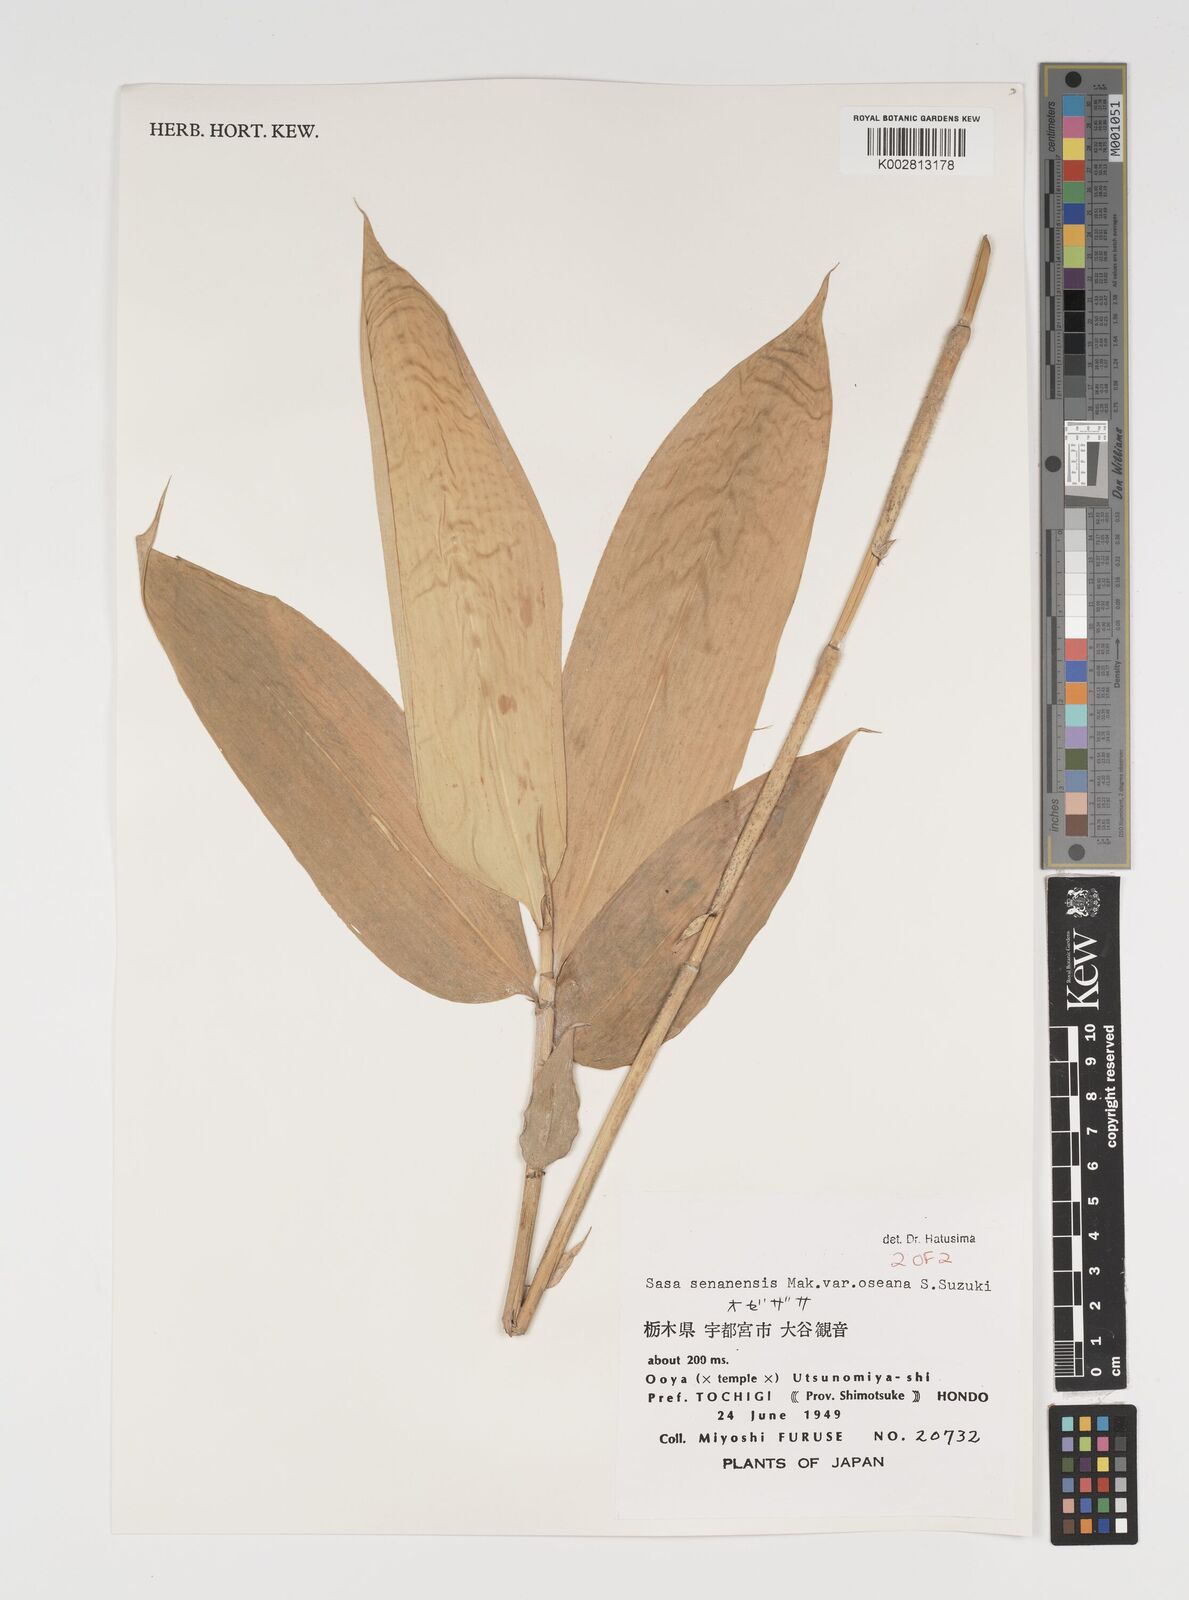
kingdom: Plantae
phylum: Tracheophyta
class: Liliopsida
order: Poales
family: Poaceae
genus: Sasa
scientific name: Sasa senanensis
